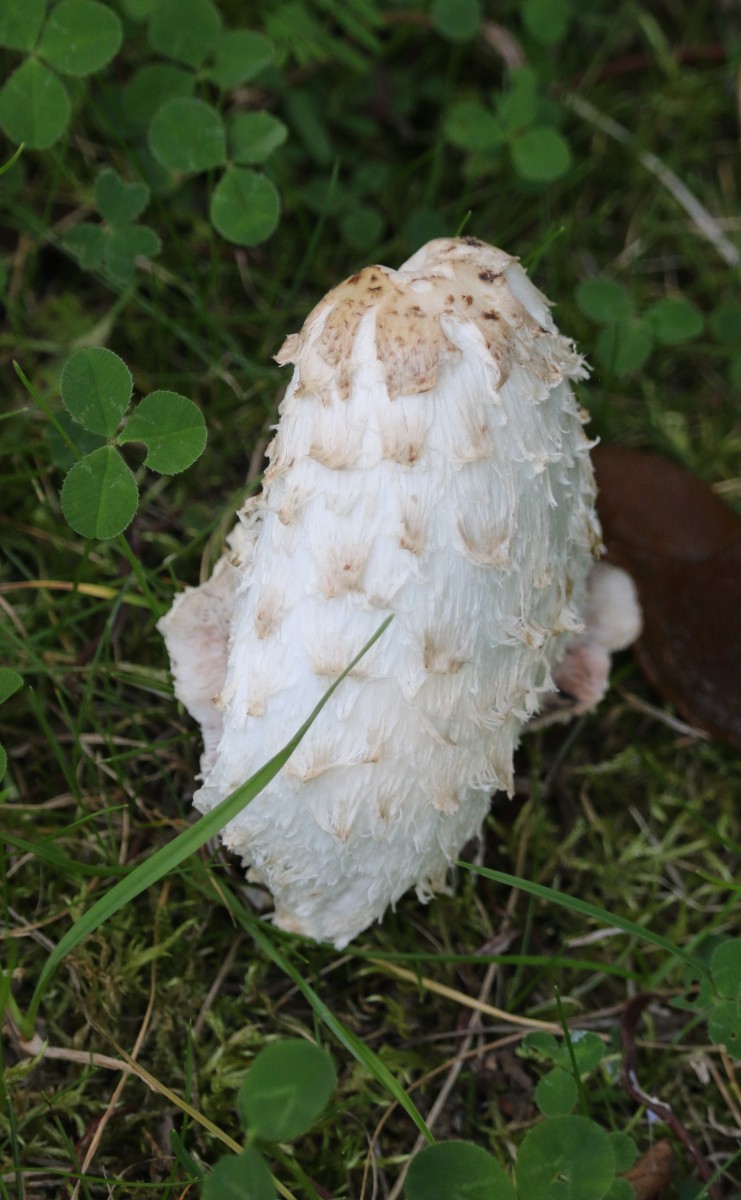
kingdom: Fungi
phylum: Basidiomycota
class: Agaricomycetes
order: Agaricales
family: Agaricaceae
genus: Coprinus
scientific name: Coprinus comatus
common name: stor parykhat
